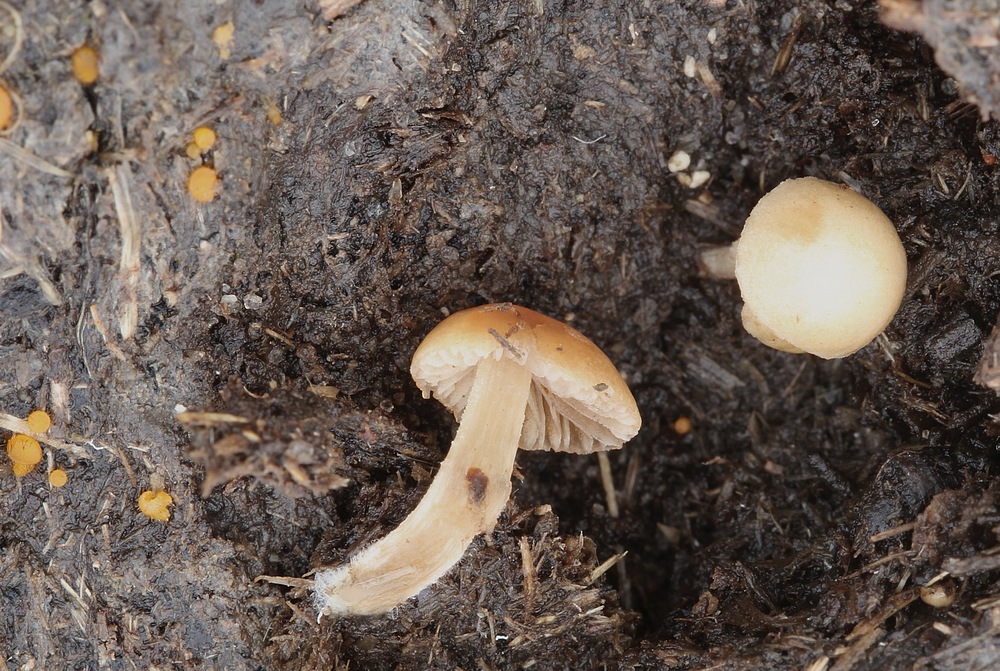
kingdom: Fungi
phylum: Basidiomycota
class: Agaricomycetes
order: Agaricales
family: Bolbitiaceae
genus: Conocybe
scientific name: Conocybe coprophila
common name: gødnings-dansehat
